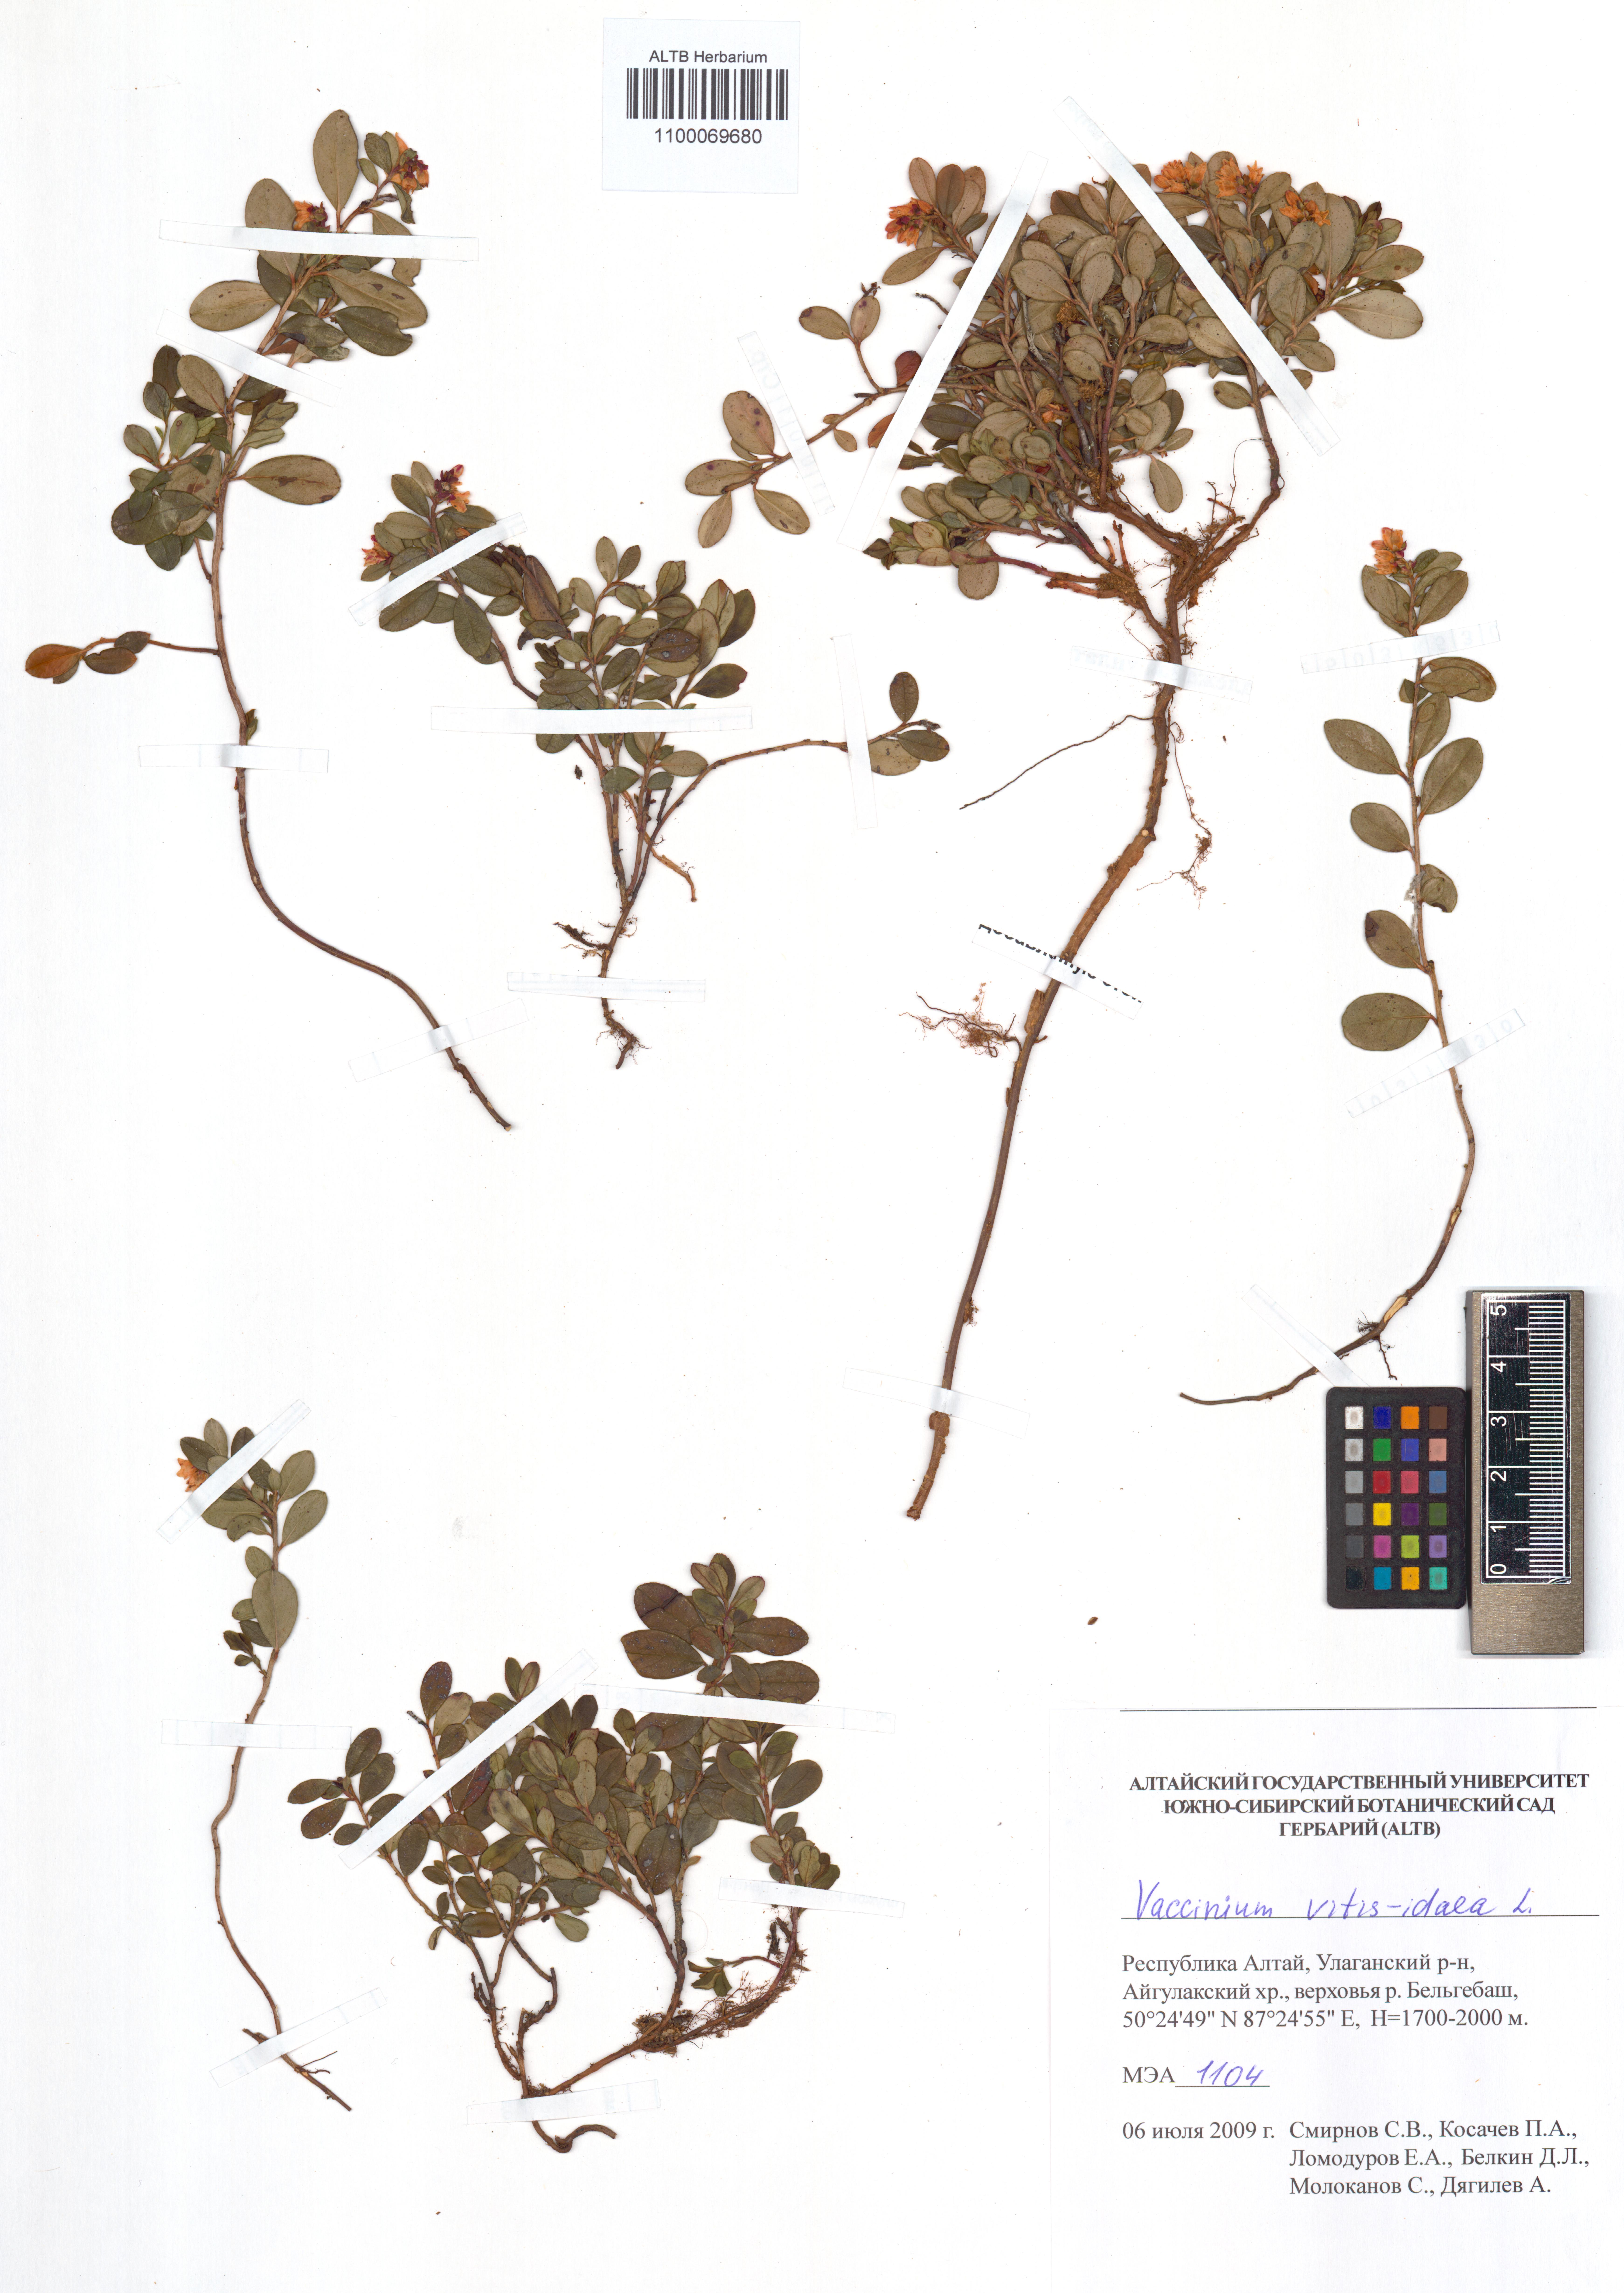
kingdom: Plantae
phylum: Tracheophyta
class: Magnoliopsida
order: Ericales
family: Ericaceae
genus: Vaccinium
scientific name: Vaccinium vitis-idaea
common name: Cowberry
